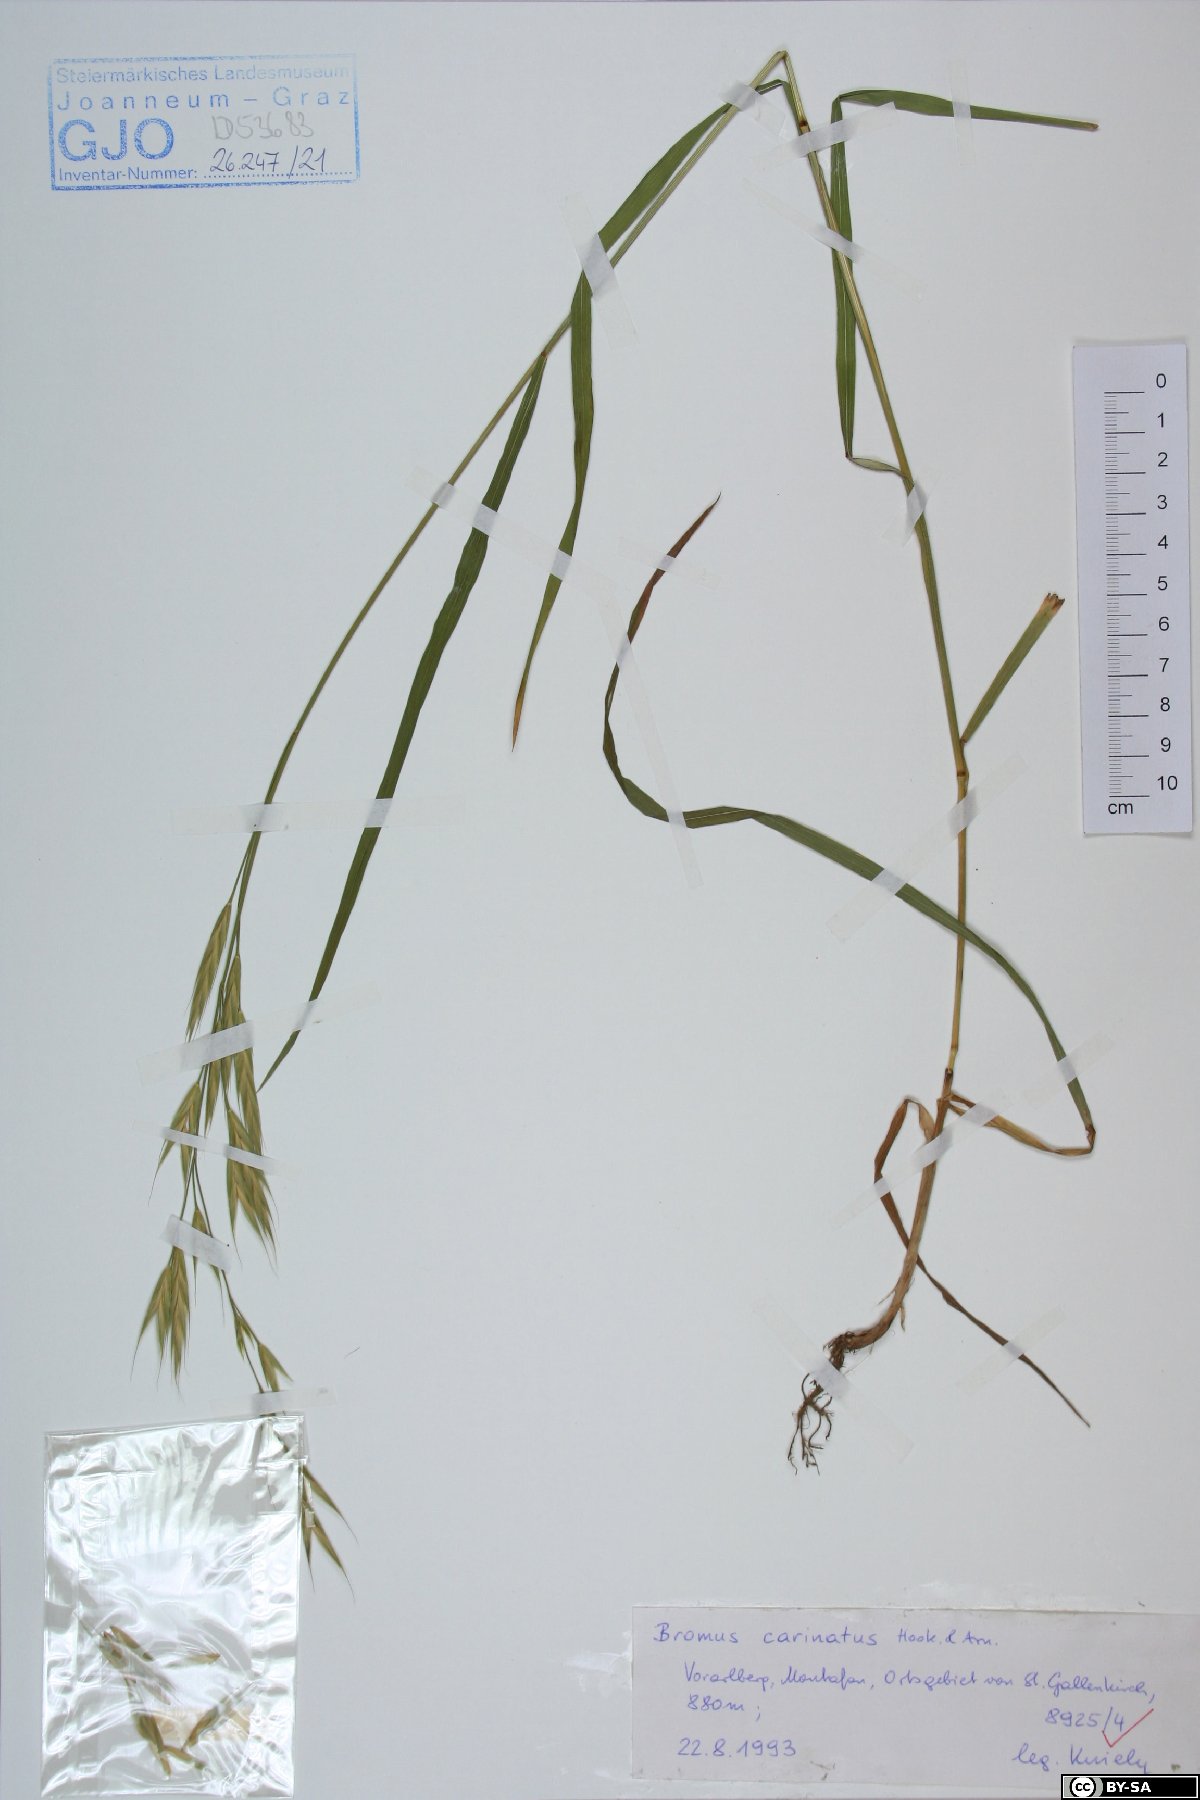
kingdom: Plantae
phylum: Tracheophyta
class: Liliopsida
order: Poales
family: Poaceae
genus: Bromus
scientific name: Bromus carinatus
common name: Mountain brome
